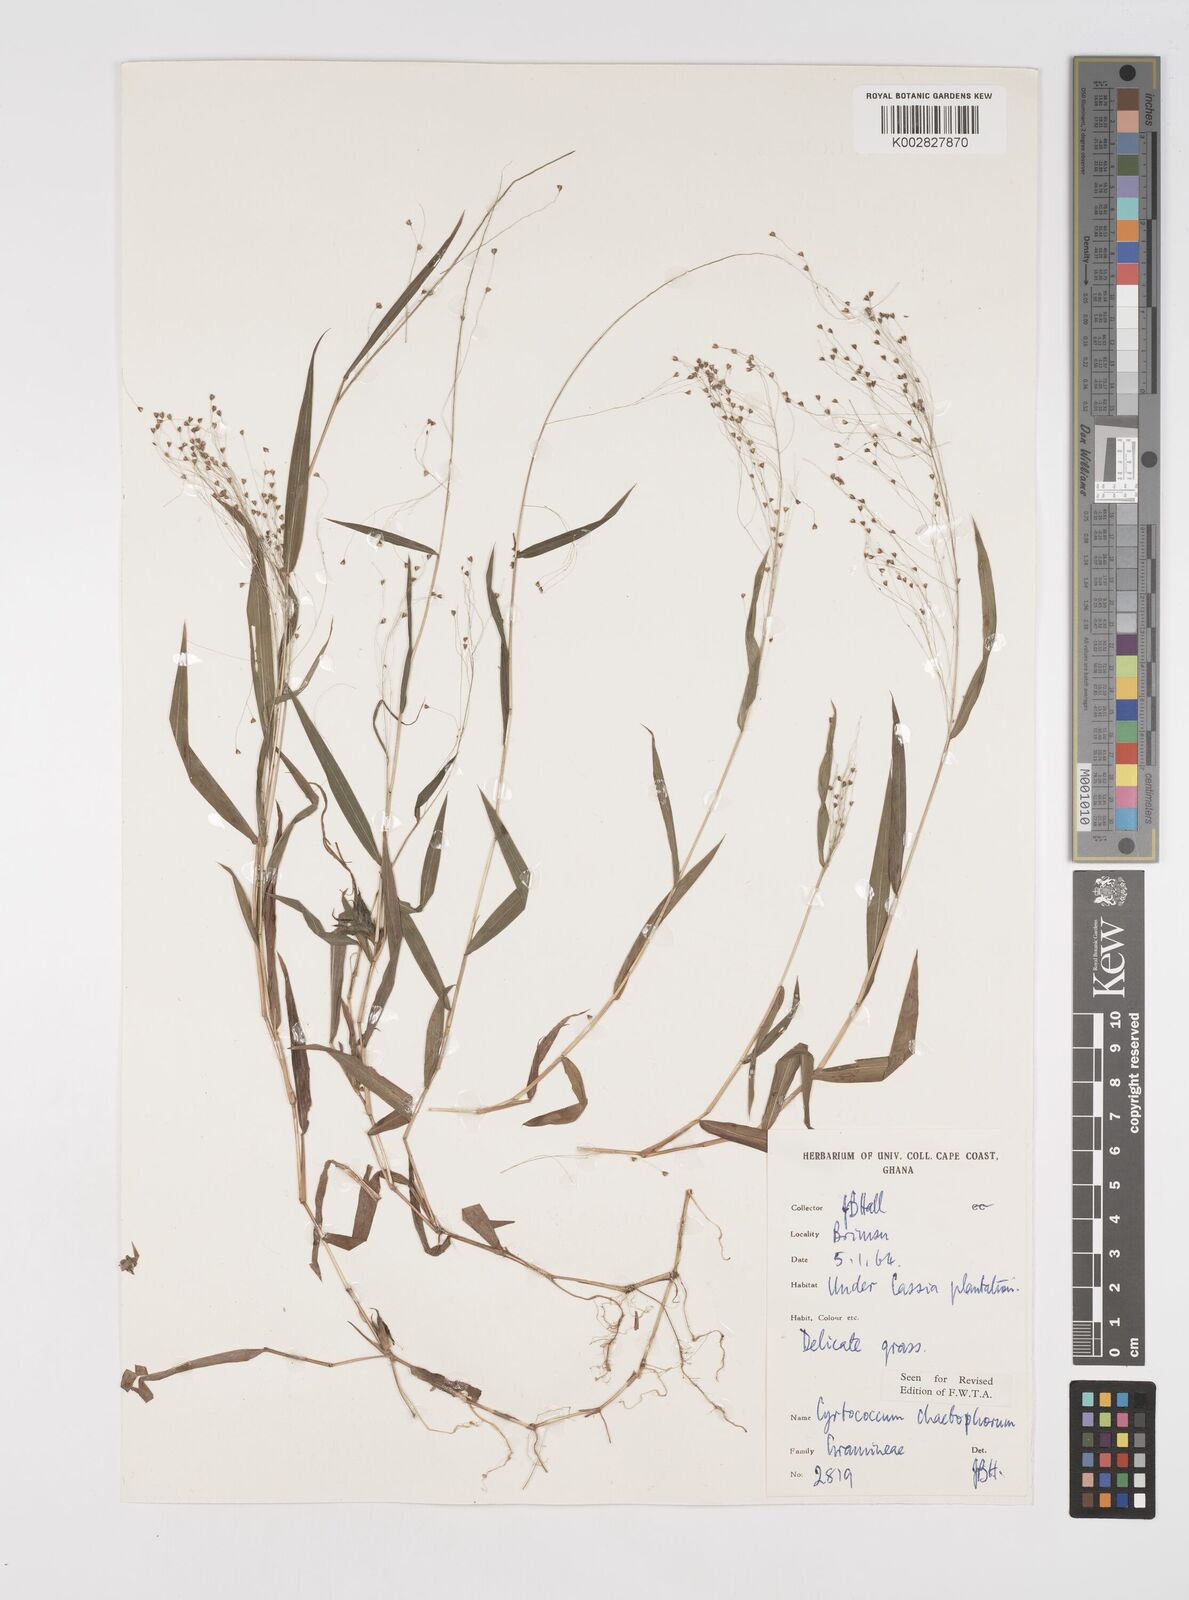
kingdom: Plantae
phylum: Tracheophyta
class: Liliopsida
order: Poales
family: Poaceae
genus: Cyrtococcum
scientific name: Cyrtococcum chaetophoron
